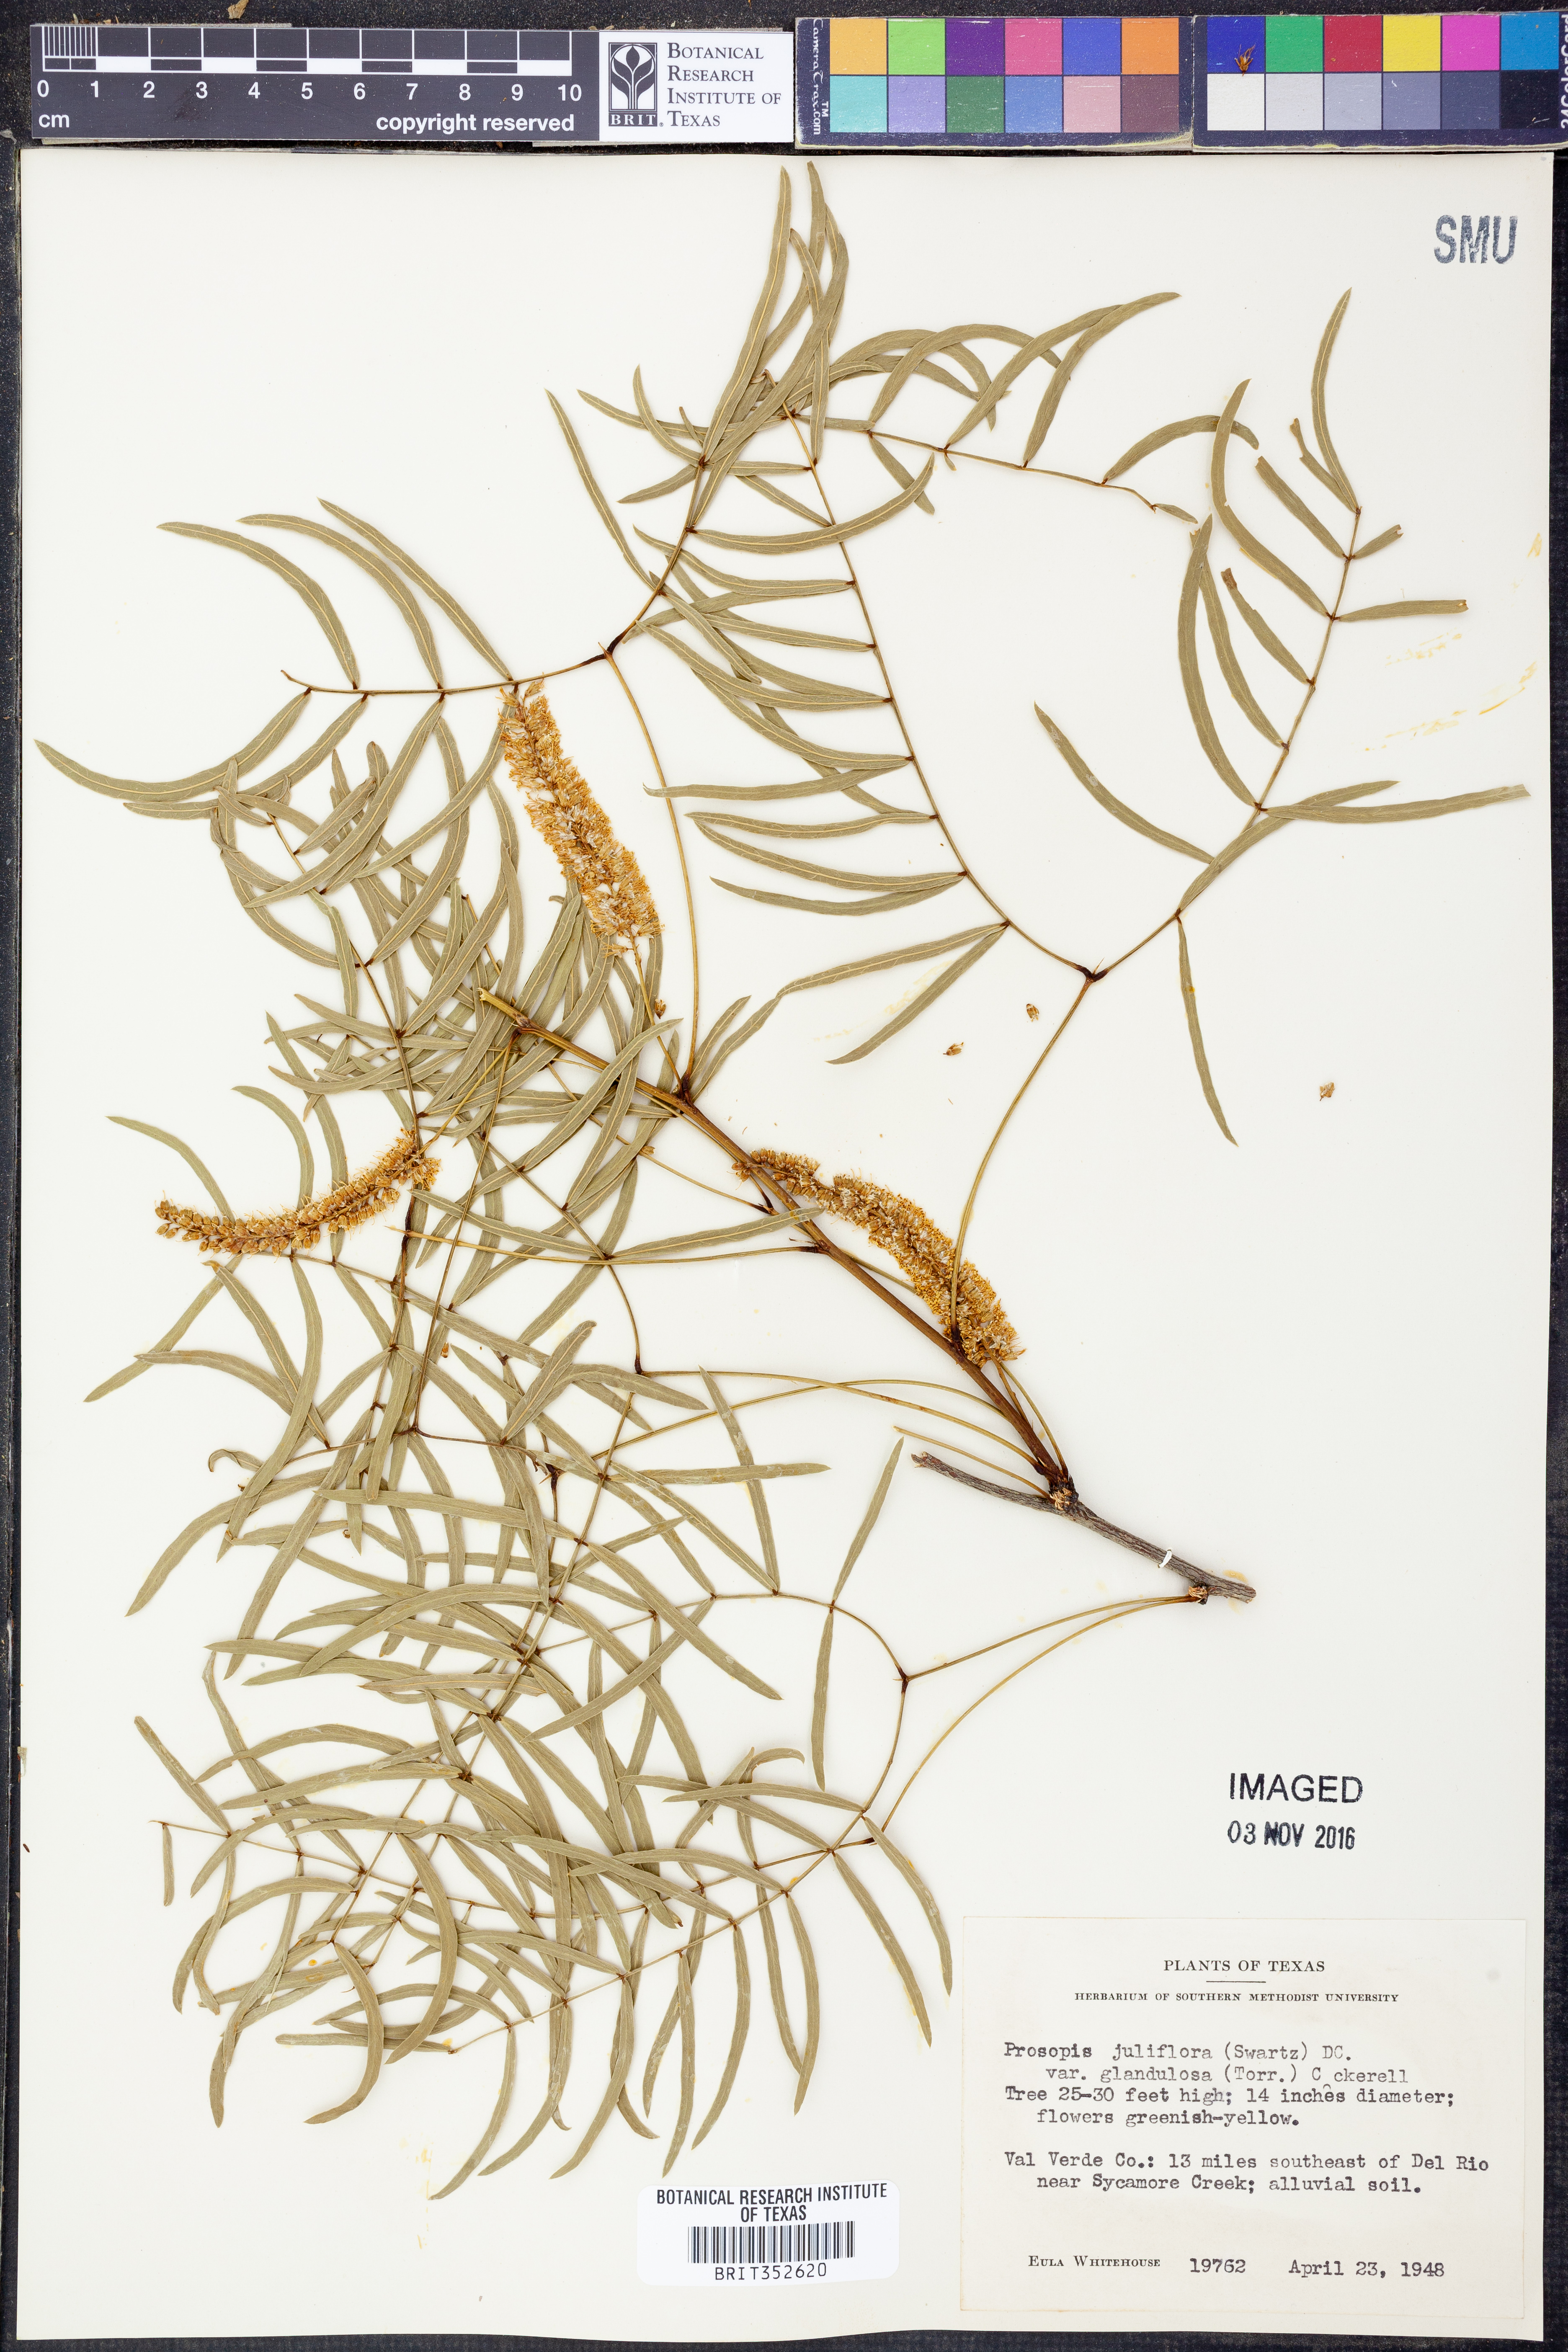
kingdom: Plantae
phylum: Tracheophyta
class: Magnoliopsida
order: Fabales
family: Fabaceae
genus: Prosopis
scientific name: Prosopis glandulosa
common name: Honey mesquite
